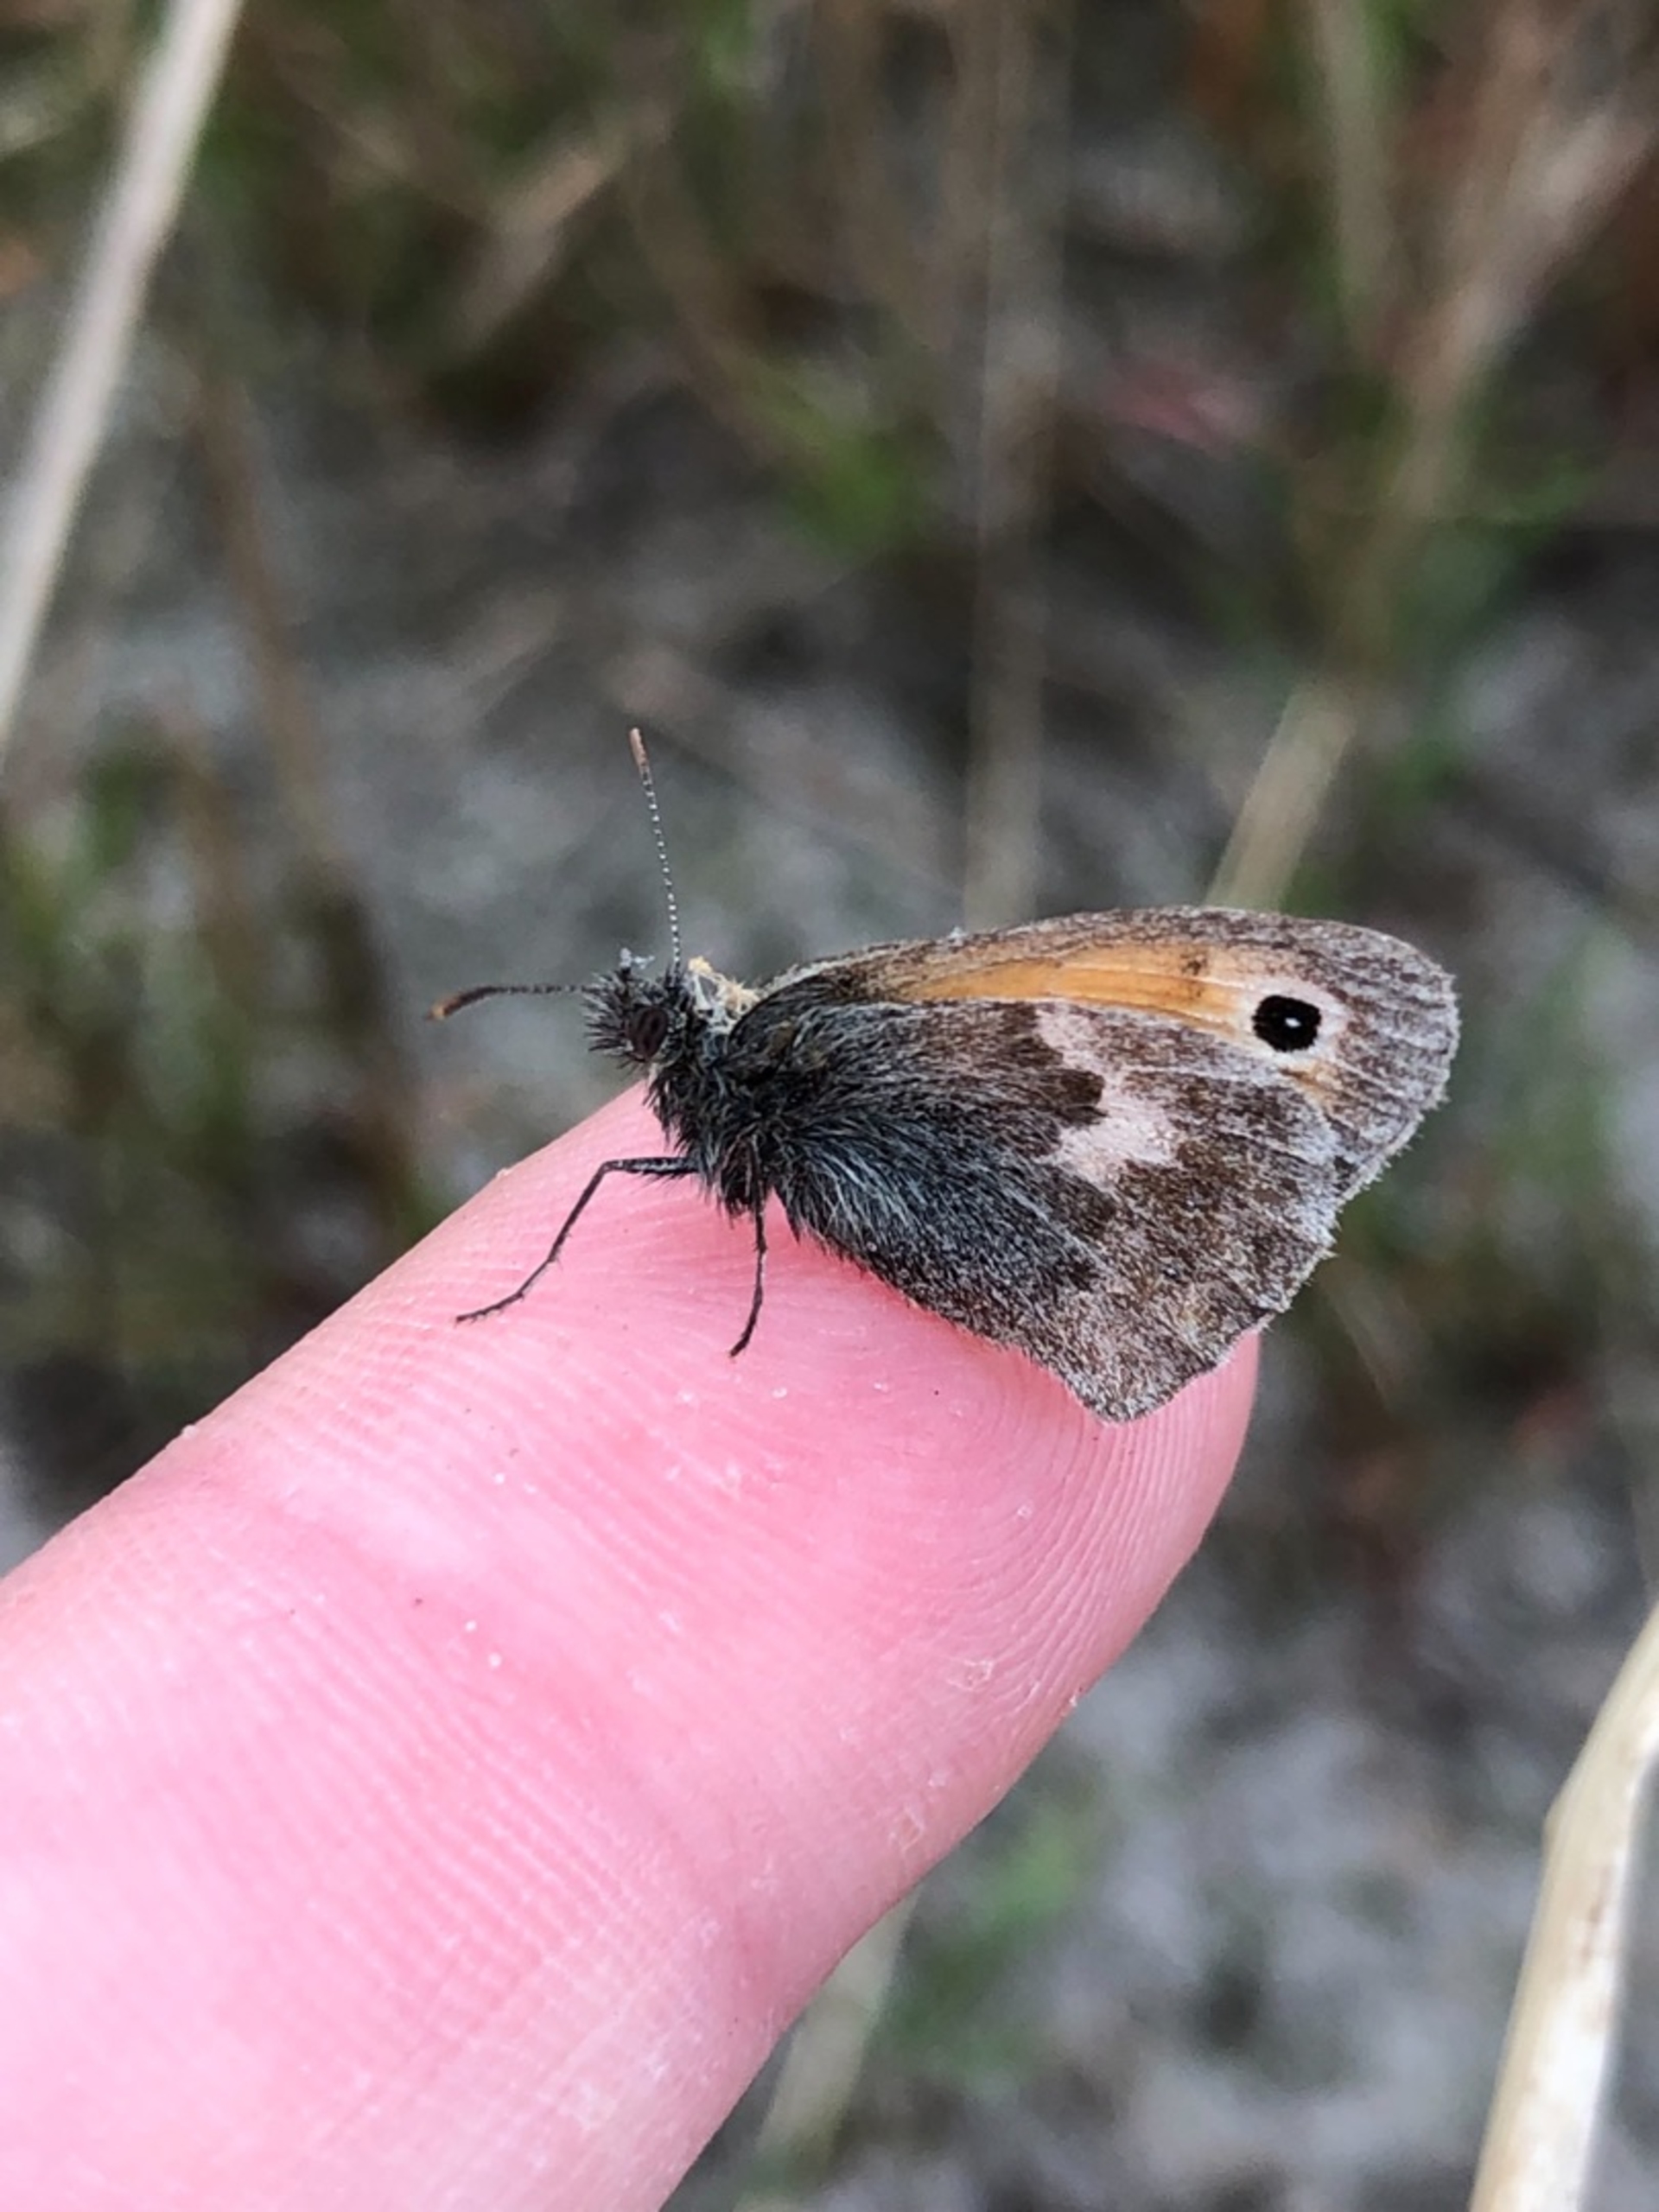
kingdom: Animalia
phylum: Arthropoda
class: Insecta
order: Lepidoptera
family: Nymphalidae
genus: Coenonympha
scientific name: Coenonympha pamphilus
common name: Okkergul randøje
